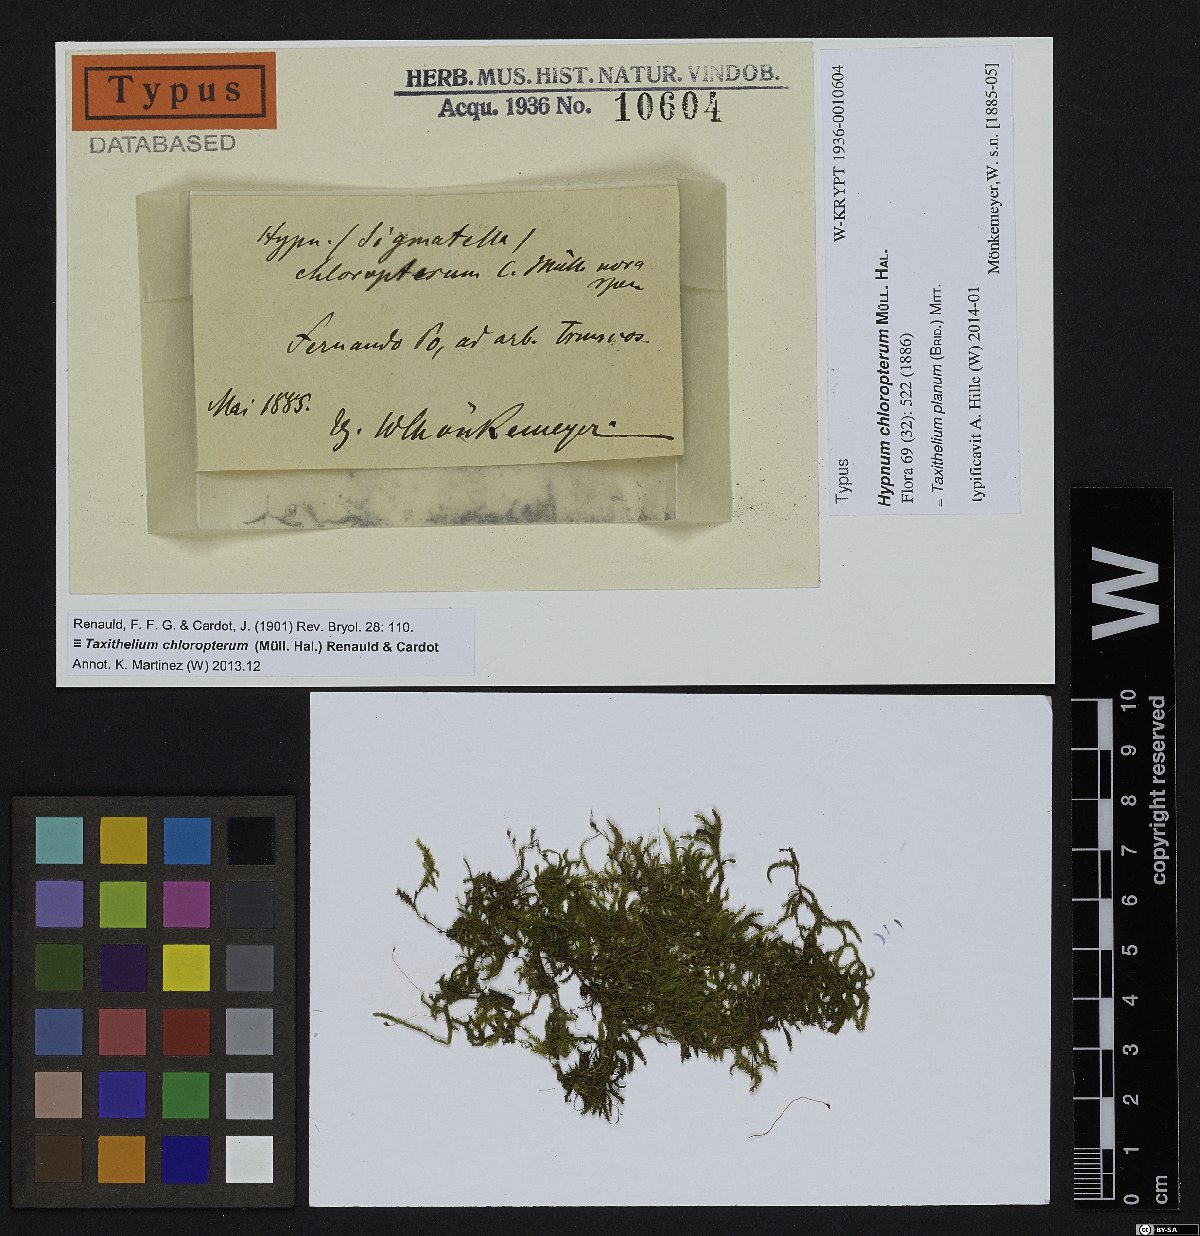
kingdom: Plantae
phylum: Bryophyta
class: Bryopsida
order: Hypnales
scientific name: Hypnales
